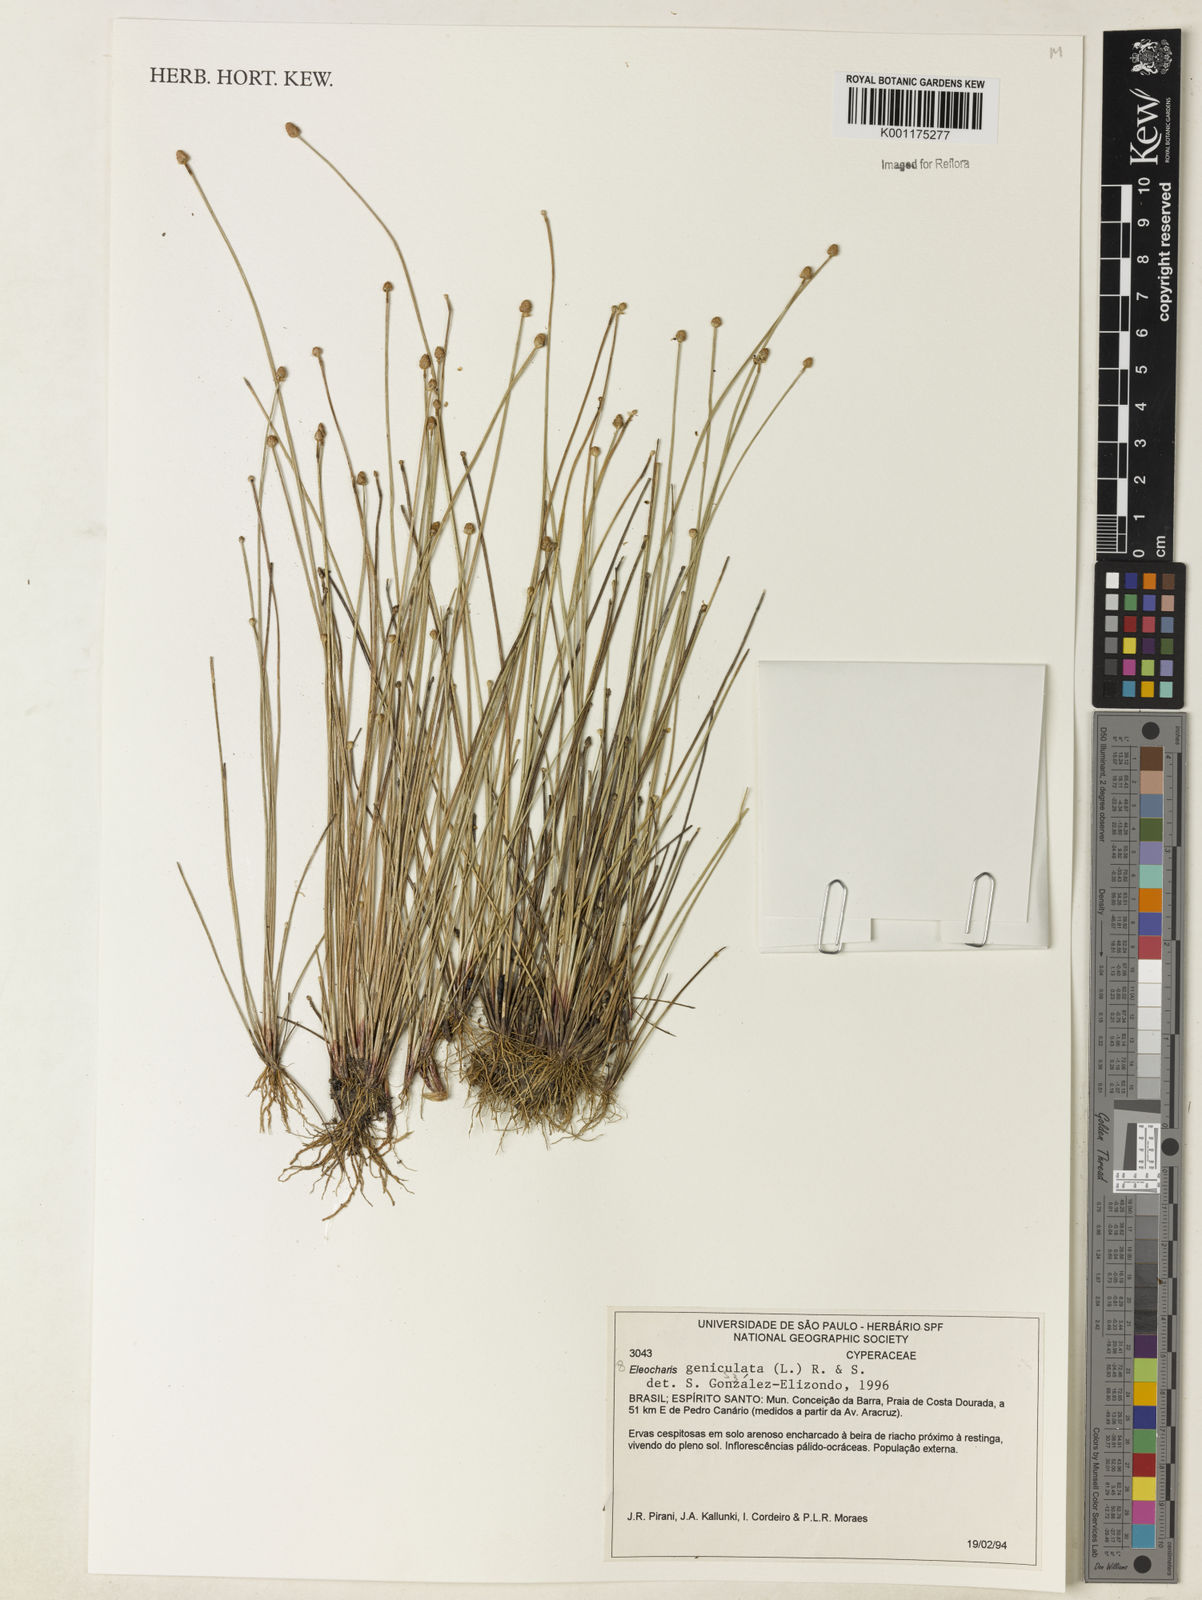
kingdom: Plantae
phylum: Tracheophyta
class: Liliopsida
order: Poales
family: Cyperaceae
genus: Eleocharis
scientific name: Eleocharis geniculata
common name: Canada spikesedge
